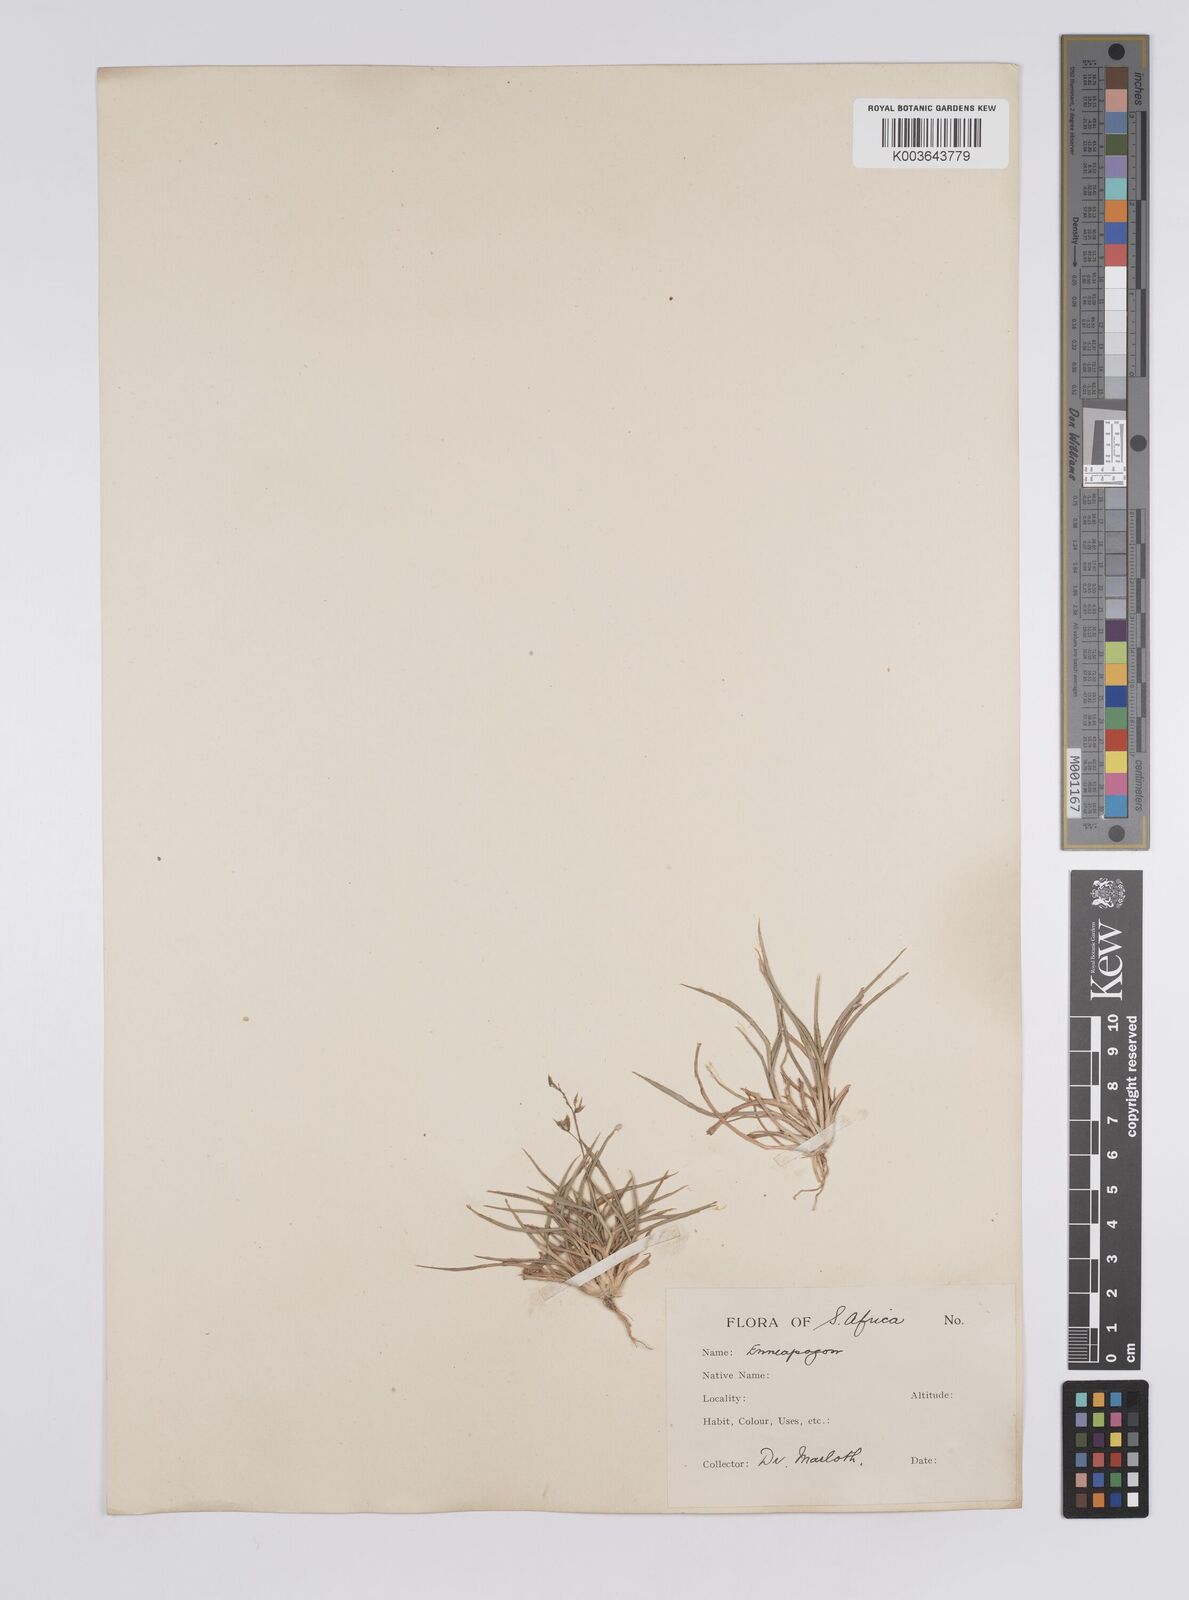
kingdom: Plantae
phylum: Tracheophyta
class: Liliopsida
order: Poales
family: Poaceae
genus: Enneapogon
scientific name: Enneapogon scaber
